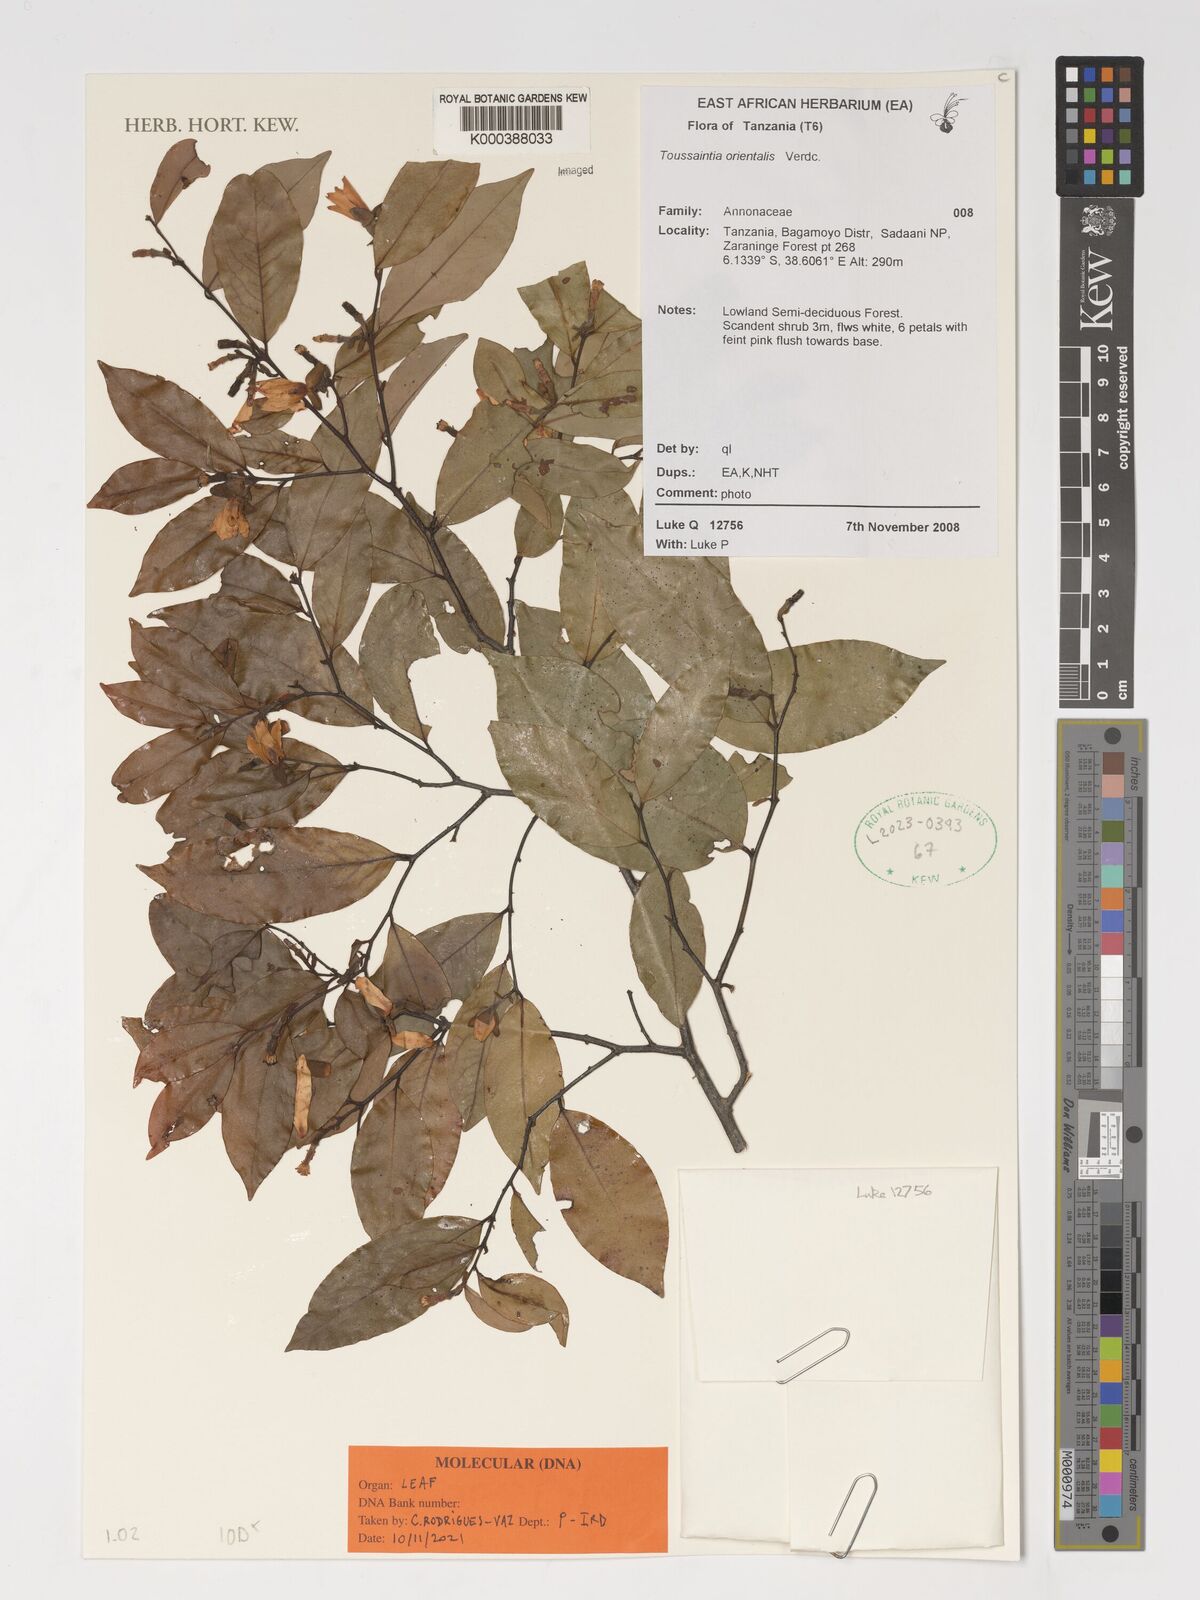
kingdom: Plantae
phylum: Tracheophyta
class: Magnoliopsida
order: Magnoliales
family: Annonaceae
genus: Toussaintia
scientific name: Toussaintia orientalis
